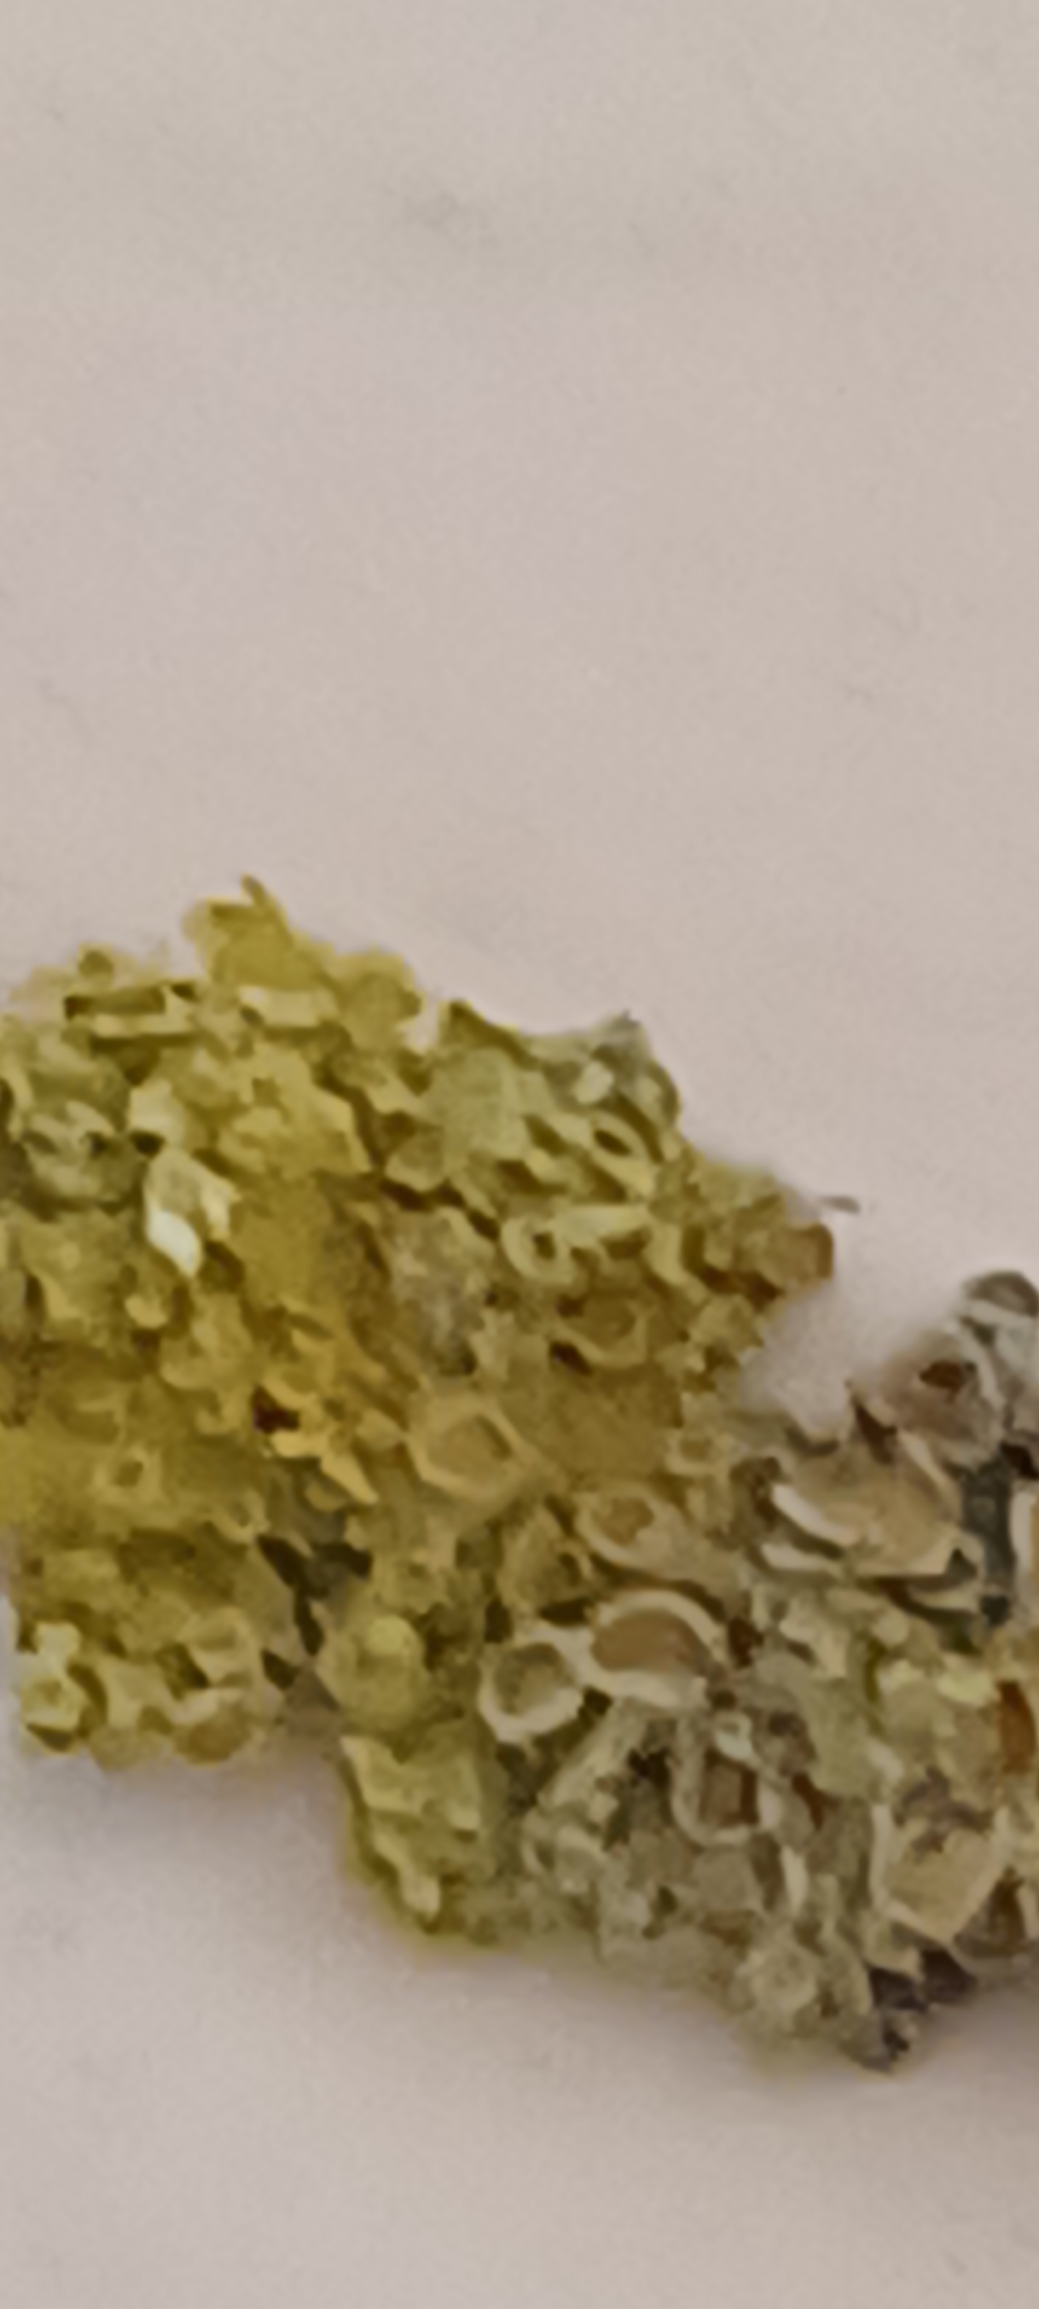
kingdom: Fungi
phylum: Ascomycota
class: Lecanoromycetes
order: Teloschistales
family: Teloschistaceae
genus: Xanthoria
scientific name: Xanthoria parietina
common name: Almindelig væggelav
